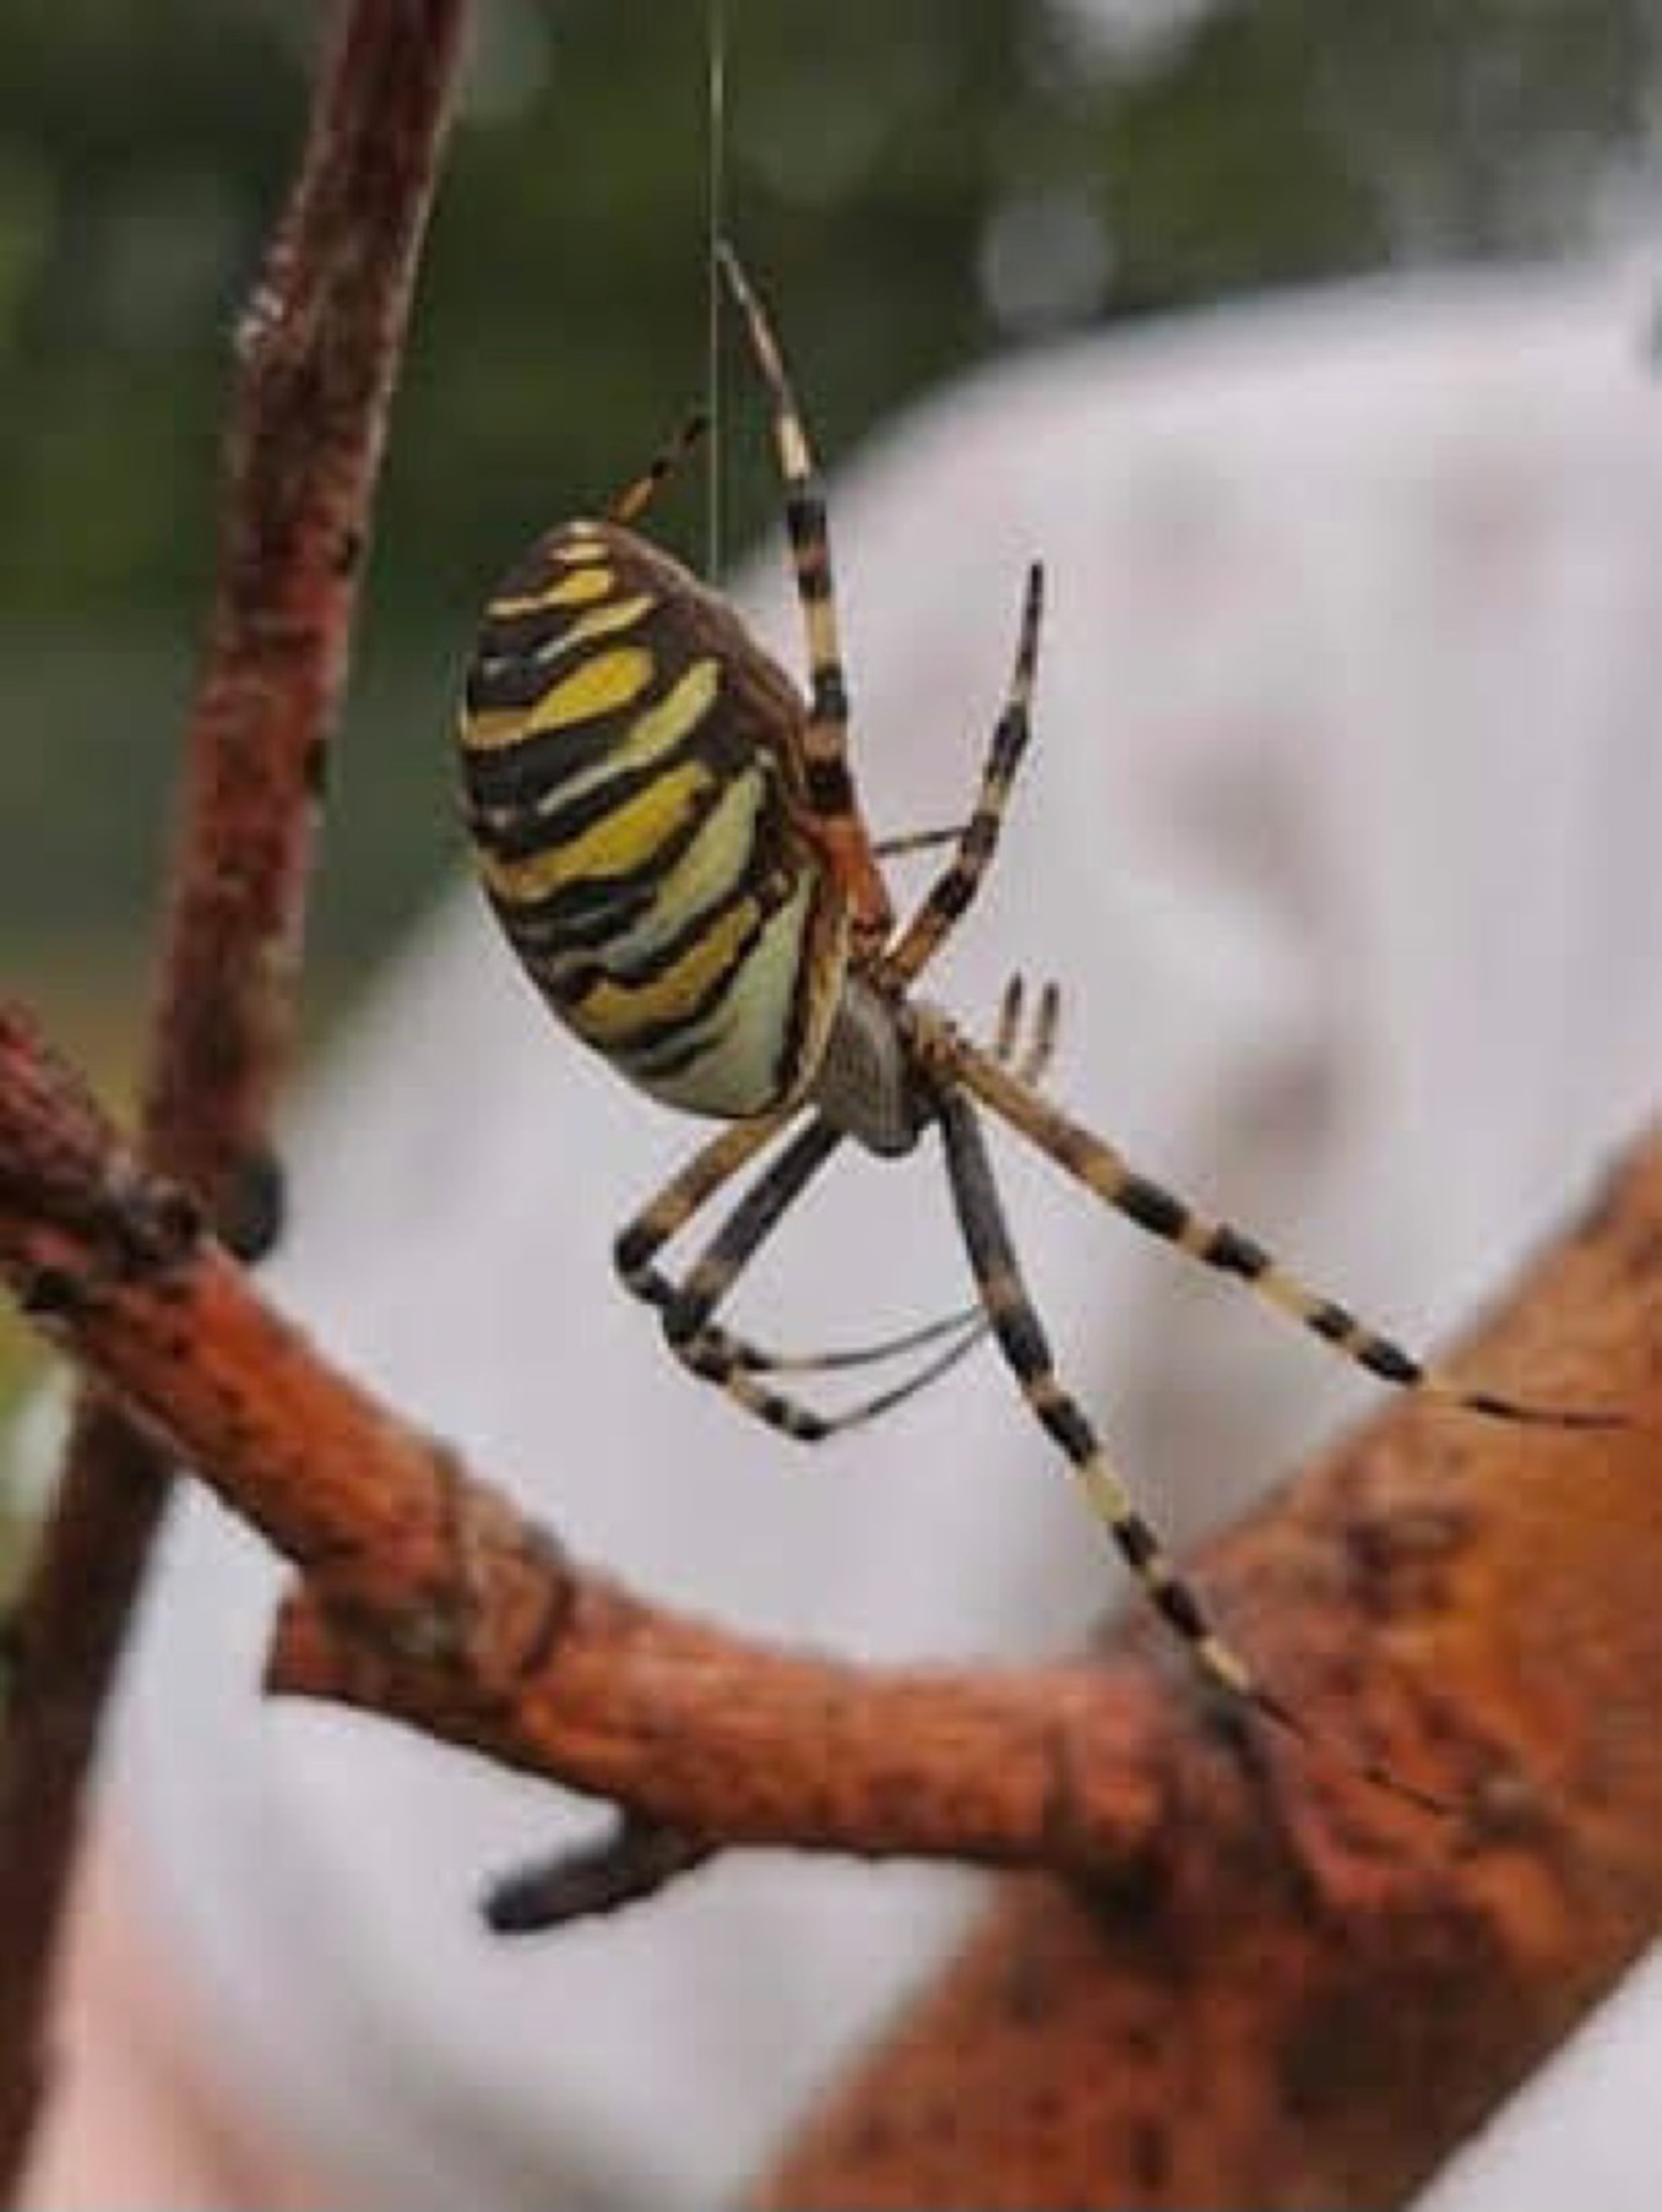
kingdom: Animalia
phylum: Arthropoda
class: Arachnida
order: Araneae
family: Araneidae
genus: Argiope
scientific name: Argiope bruennichi
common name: Hvepseedderkop
